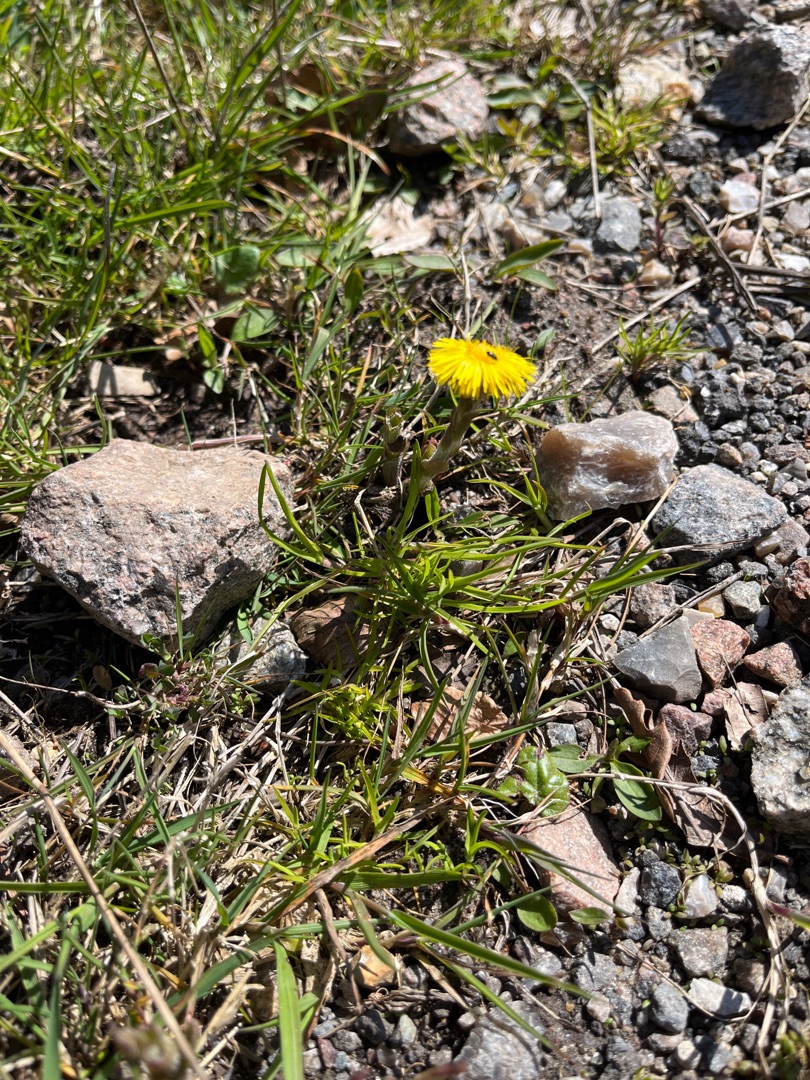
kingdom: Plantae
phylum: Tracheophyta
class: Magnoliopsida
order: Asterales
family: Asteraceae
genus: Tussilago
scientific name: Tussilago farfara
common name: Følfod
